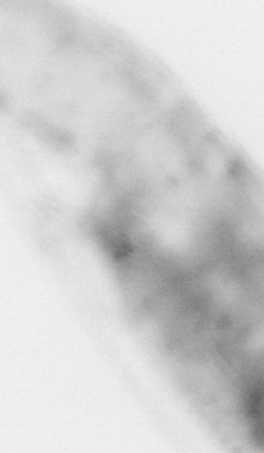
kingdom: Animalia
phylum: Chordata
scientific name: Chordata
